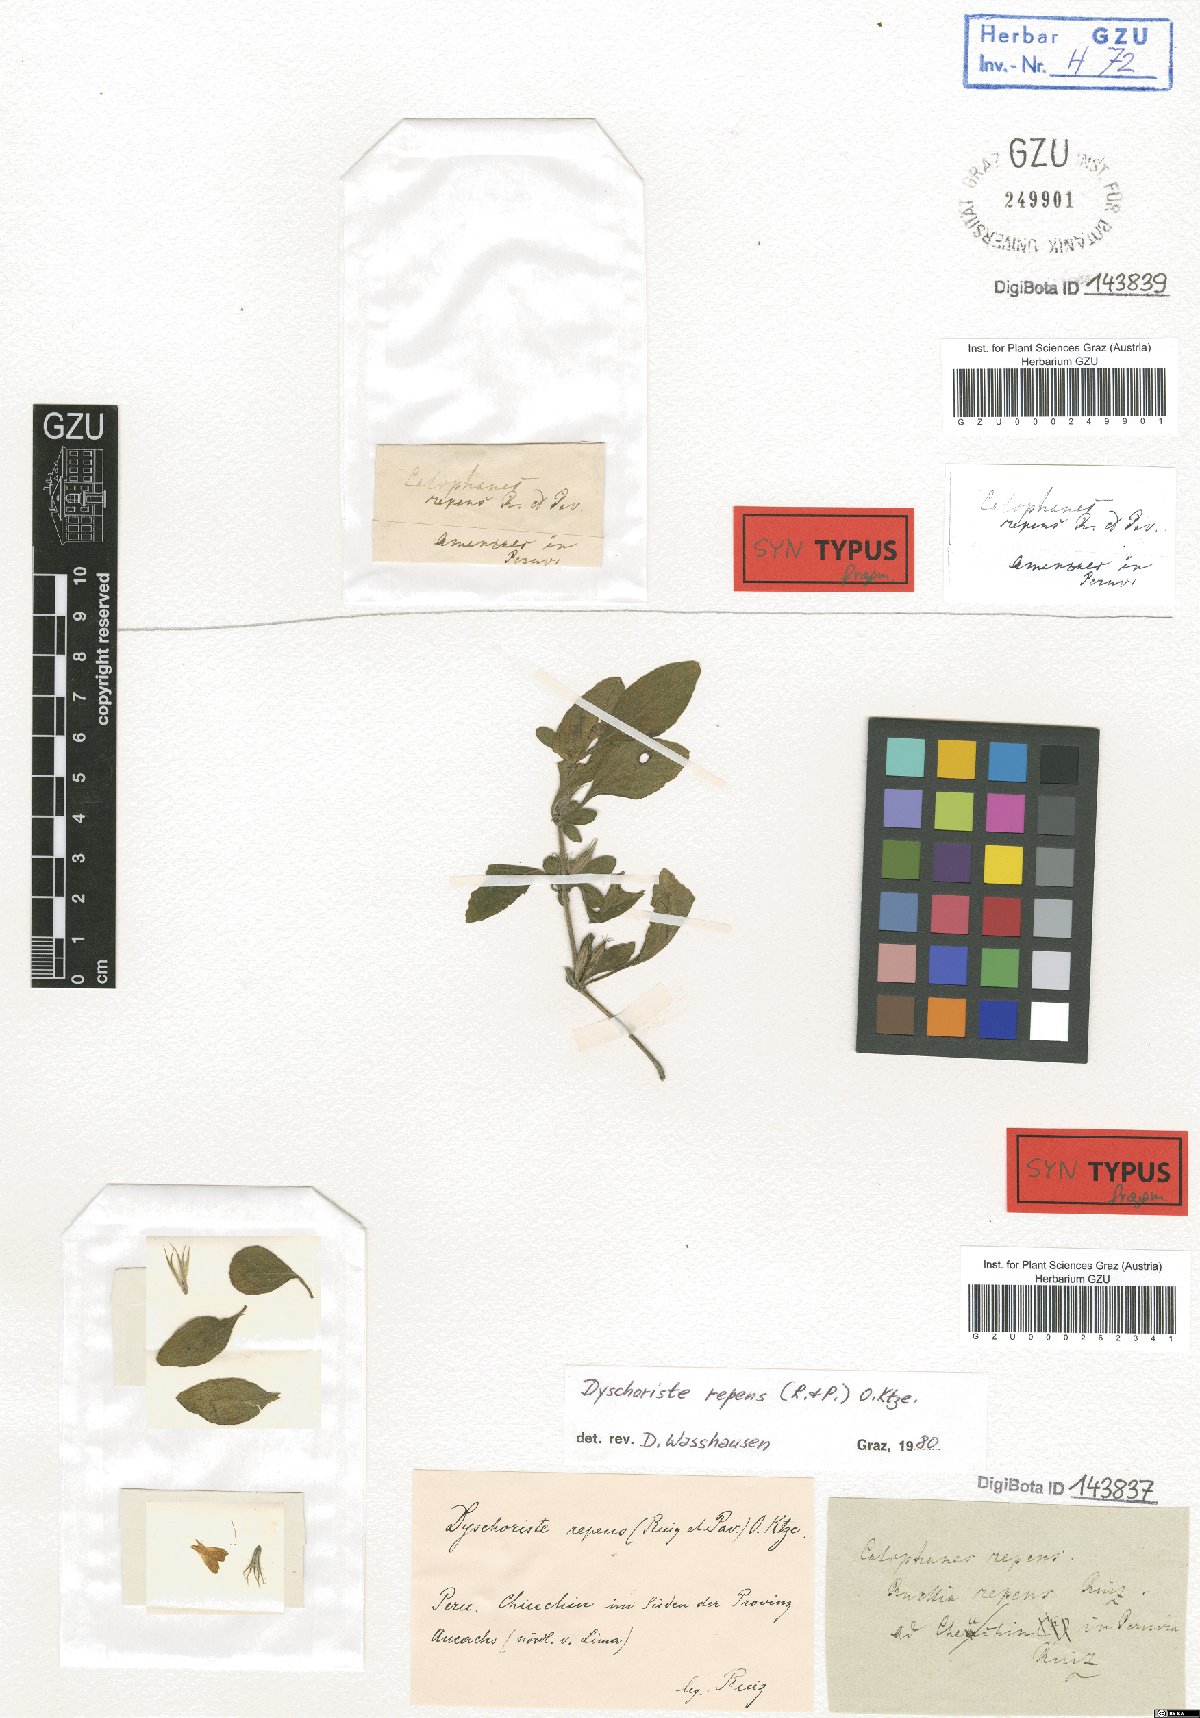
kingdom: Plantae
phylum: Tracheophyta
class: Magnoliopsida
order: Lamiales
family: Acanthaceae
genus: Dyschoriste
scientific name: Dyschoriste repens
